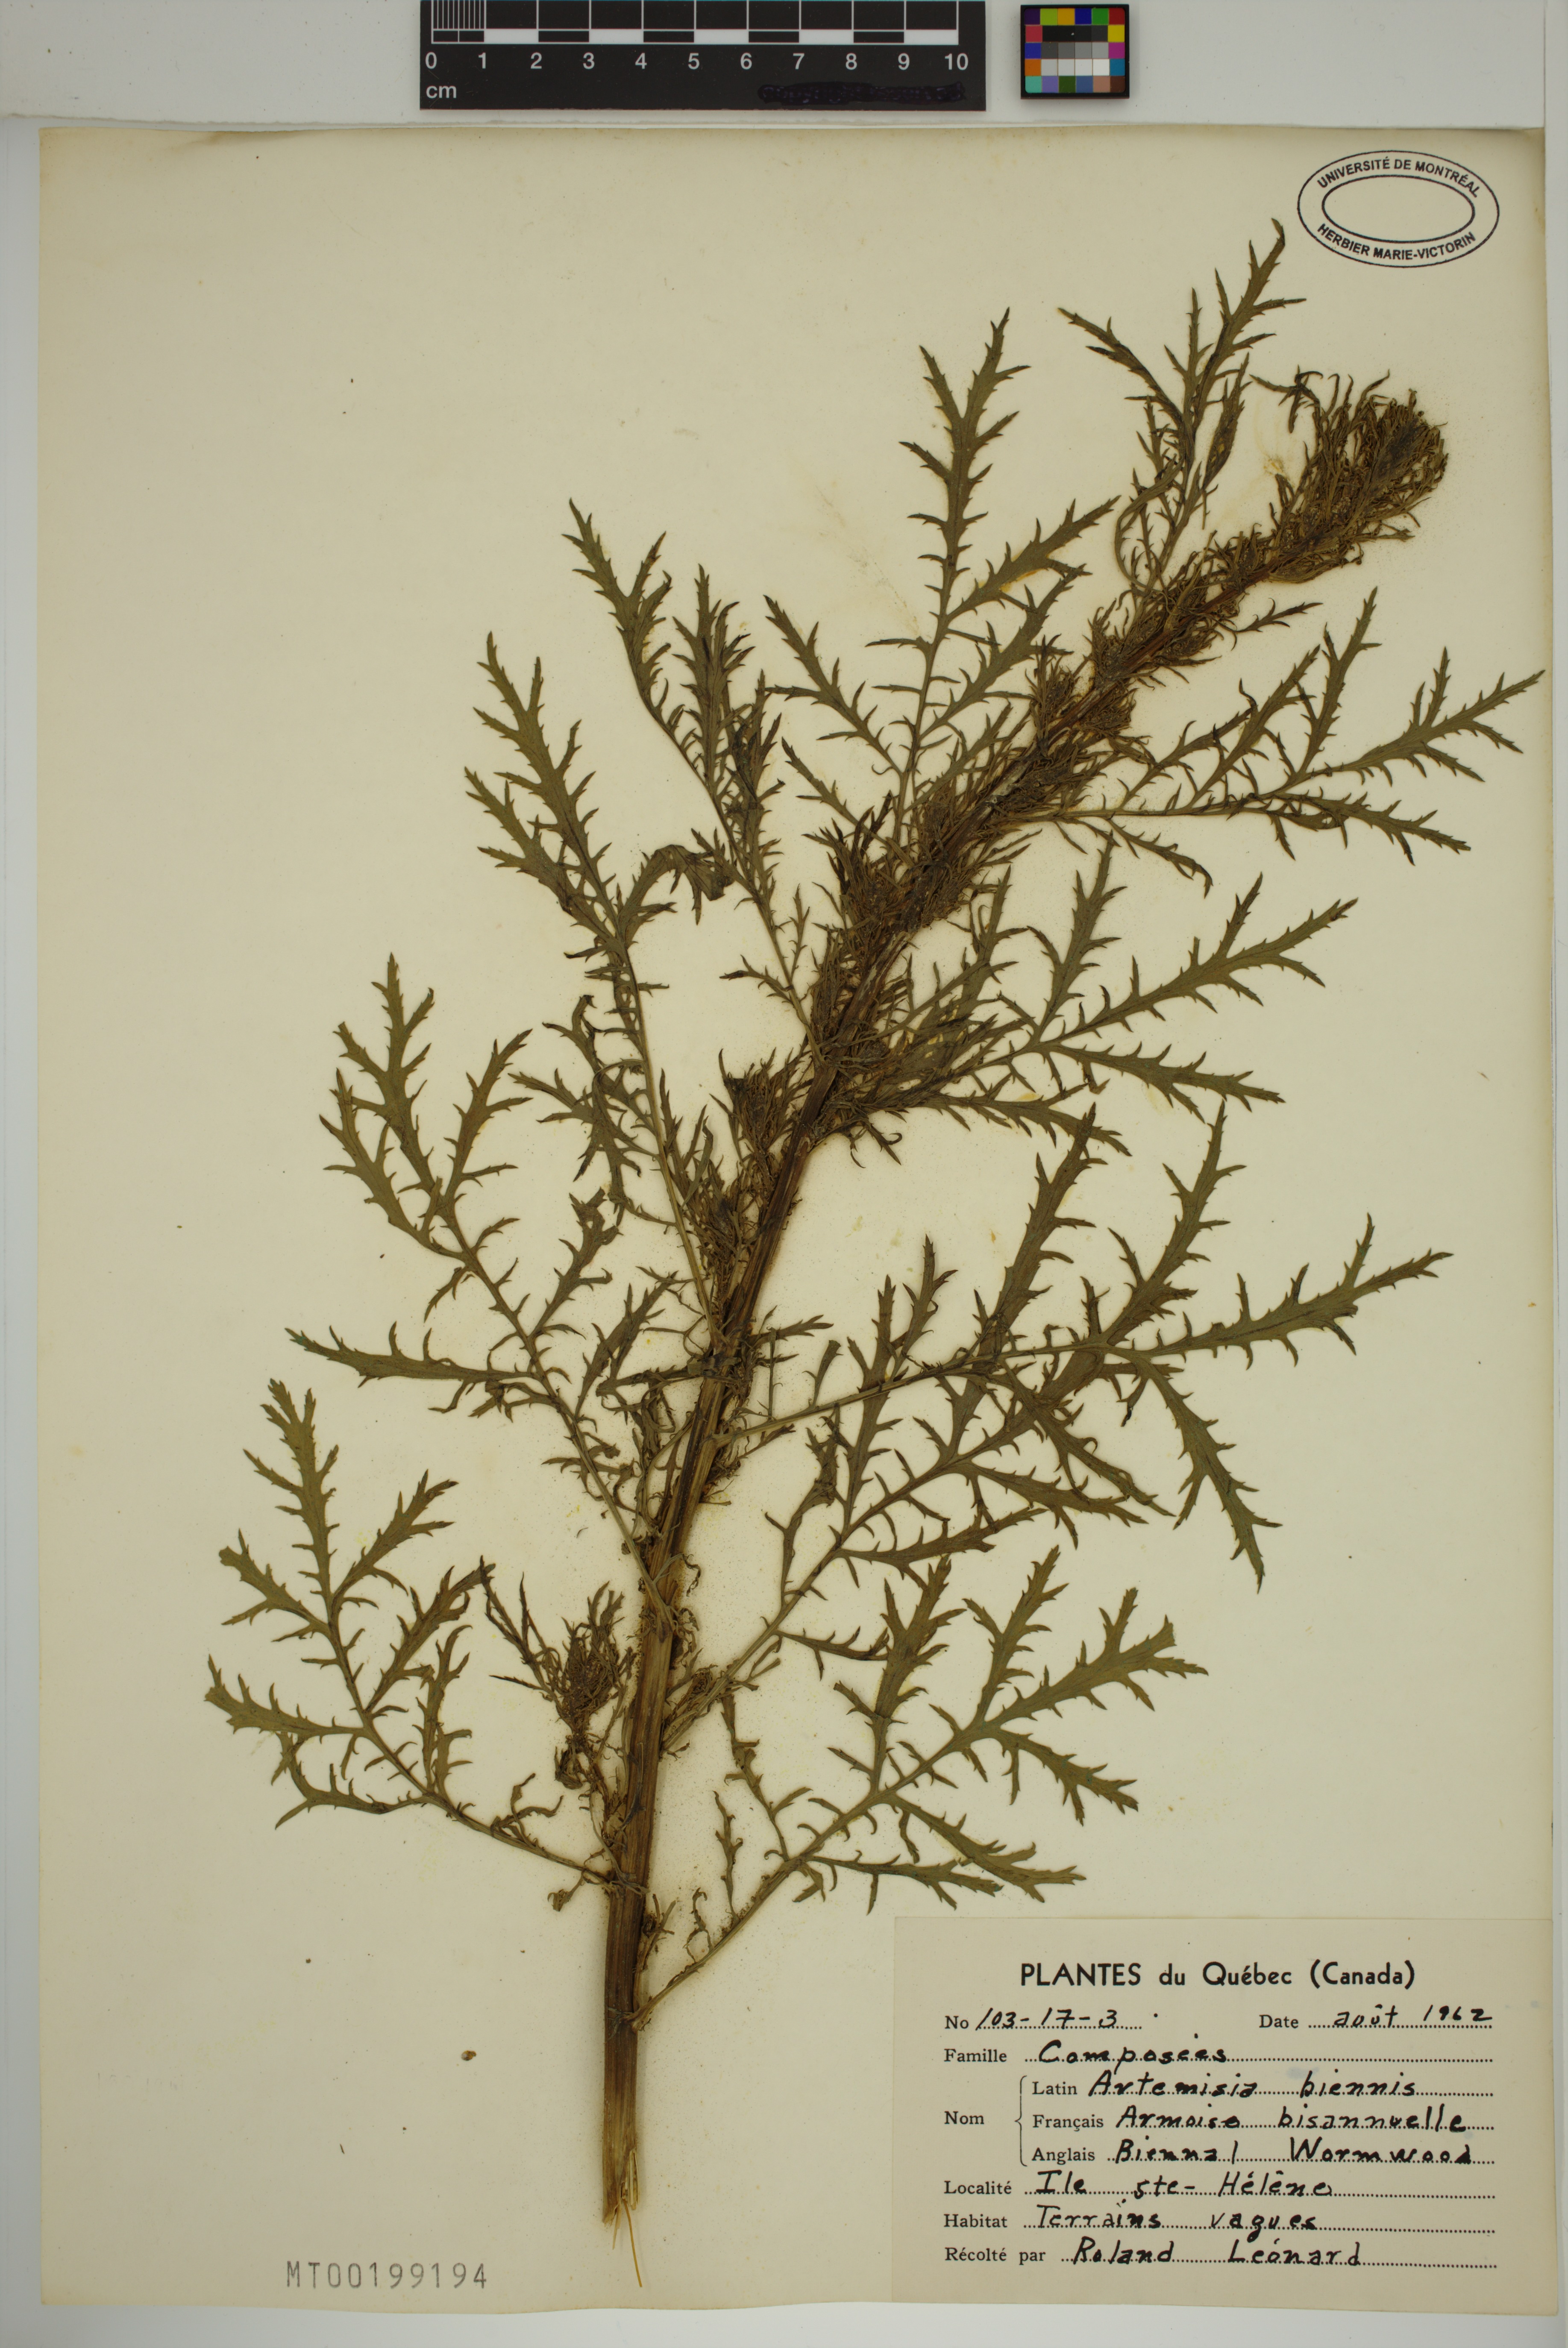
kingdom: Plantae
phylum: Tracheophyta
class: Magnoliopsida
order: Asterales
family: Asteraceae
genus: Artemisia
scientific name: Artemisia biennis
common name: Biennial wormwood
